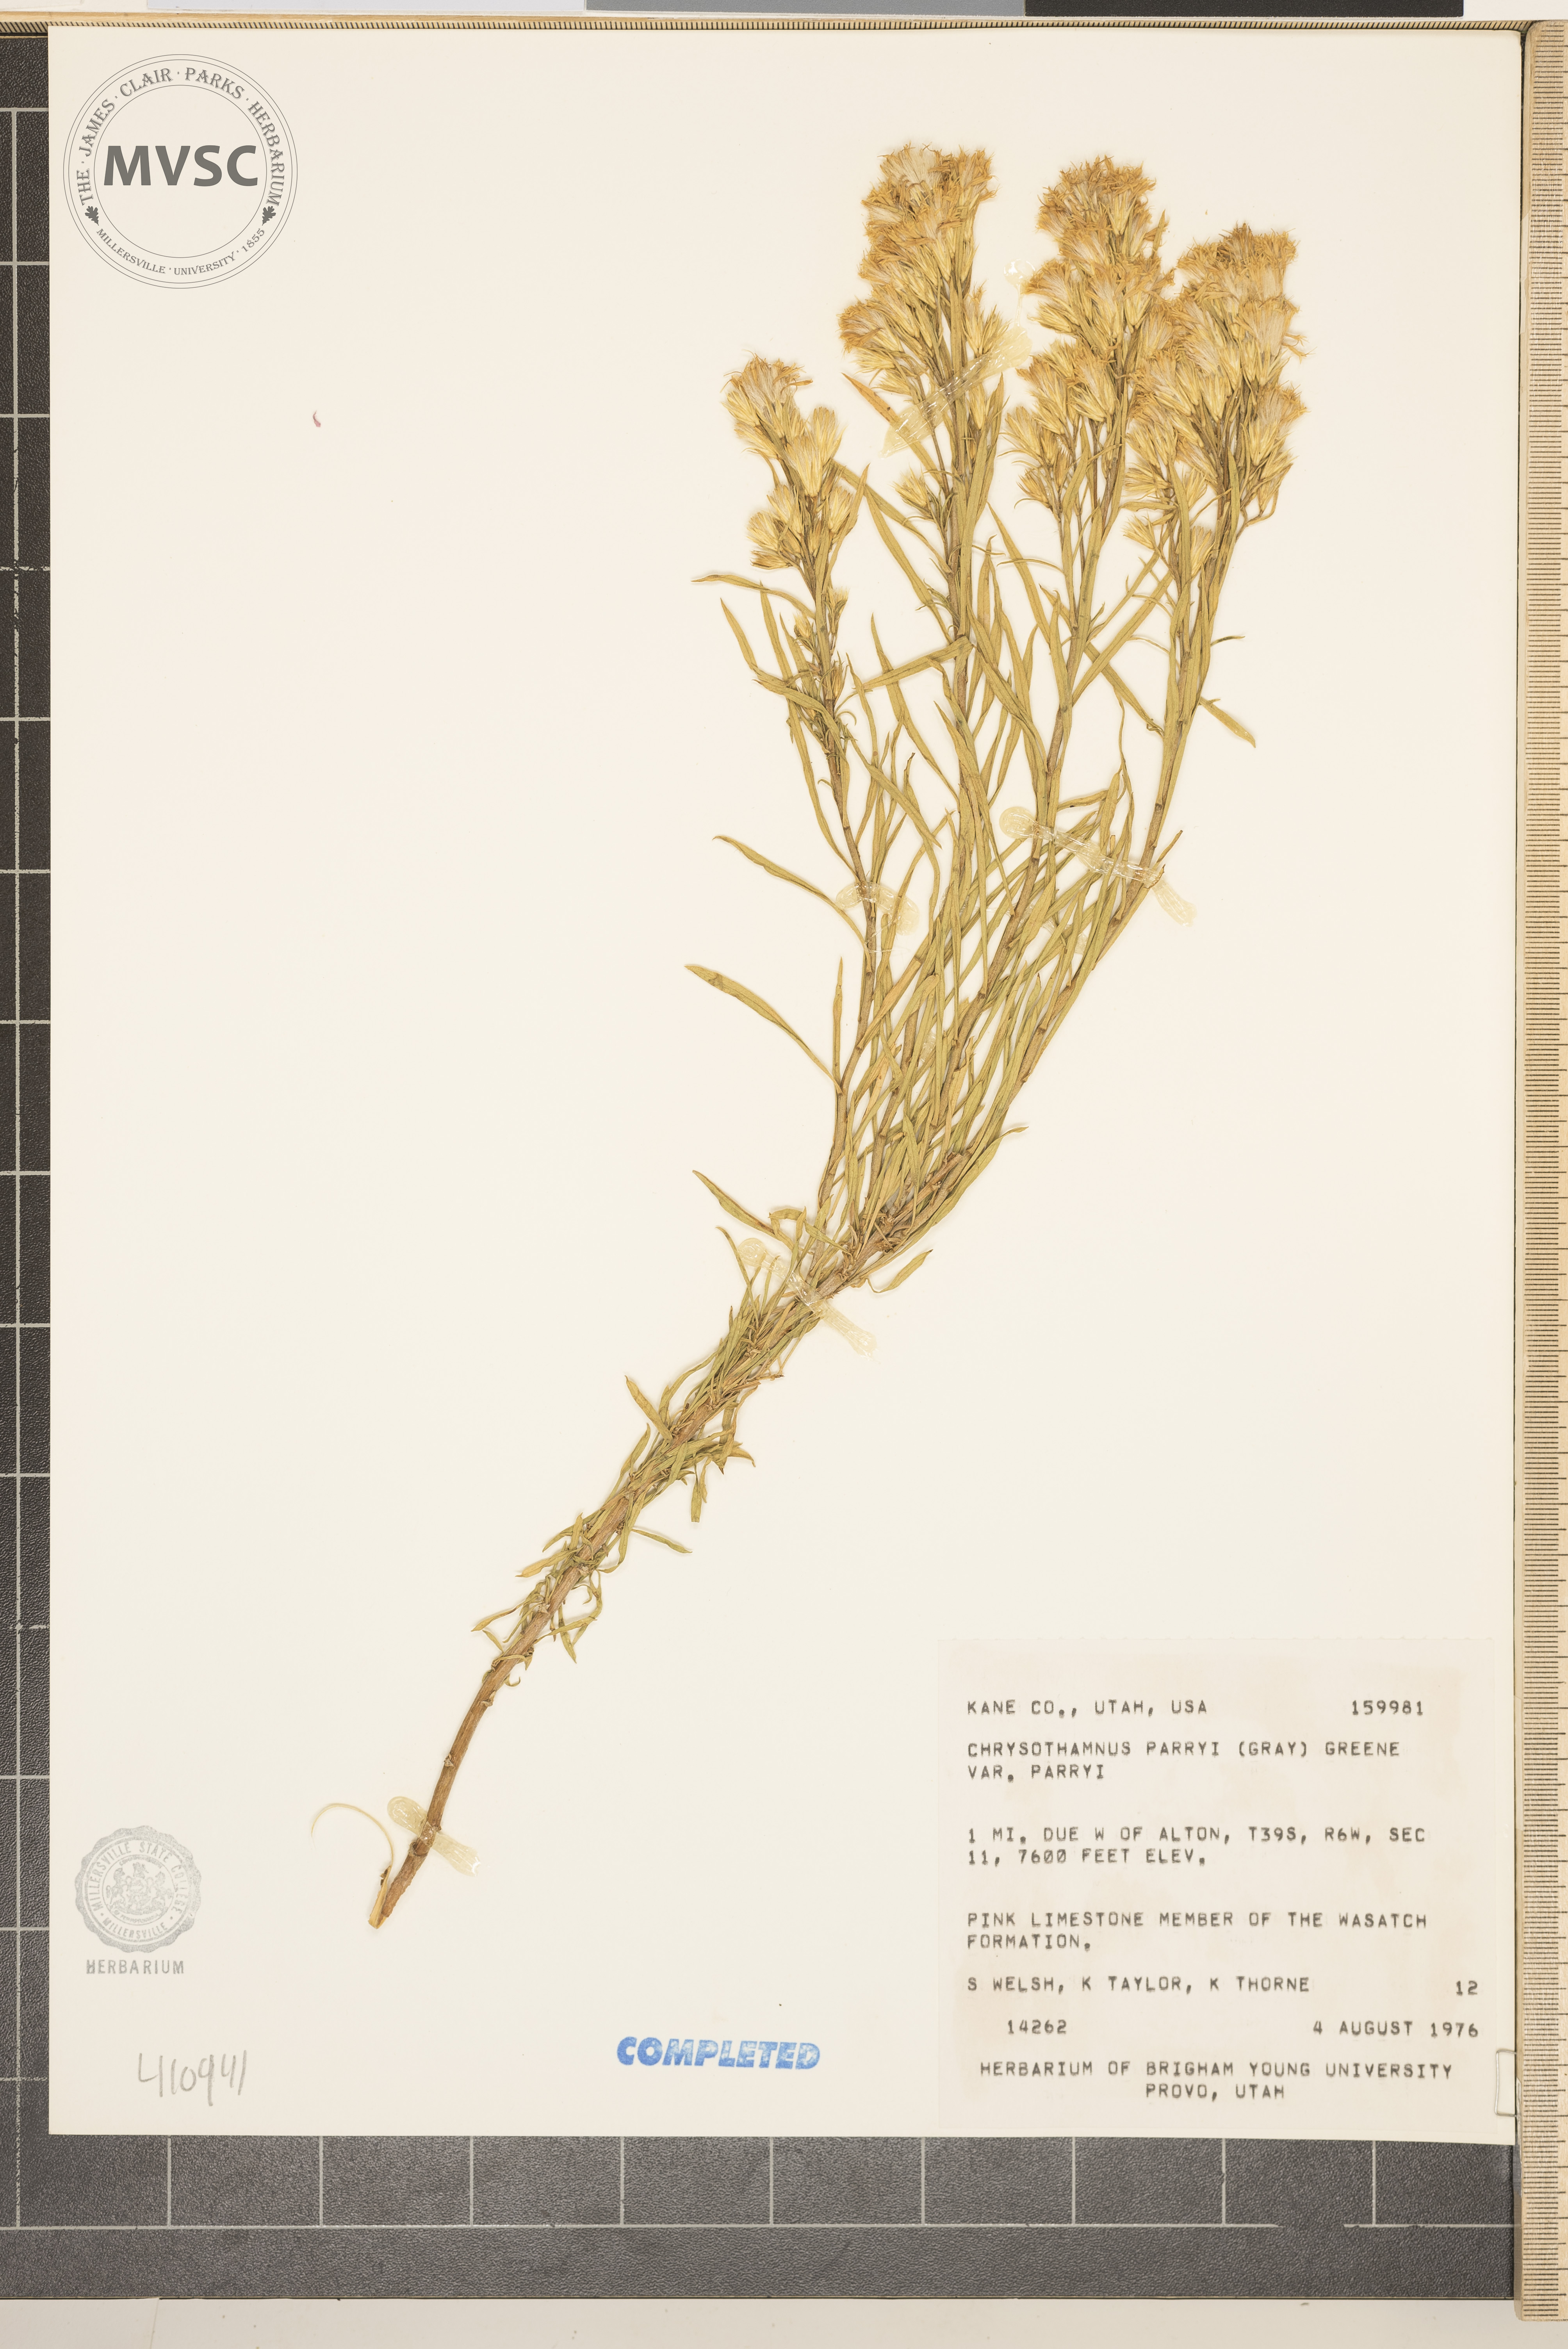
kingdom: Plantae
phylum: Tracheophyta
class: Magnoliopsida
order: Asterales
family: Asteraceae
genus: Ericameria
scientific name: Ericameria parryi
